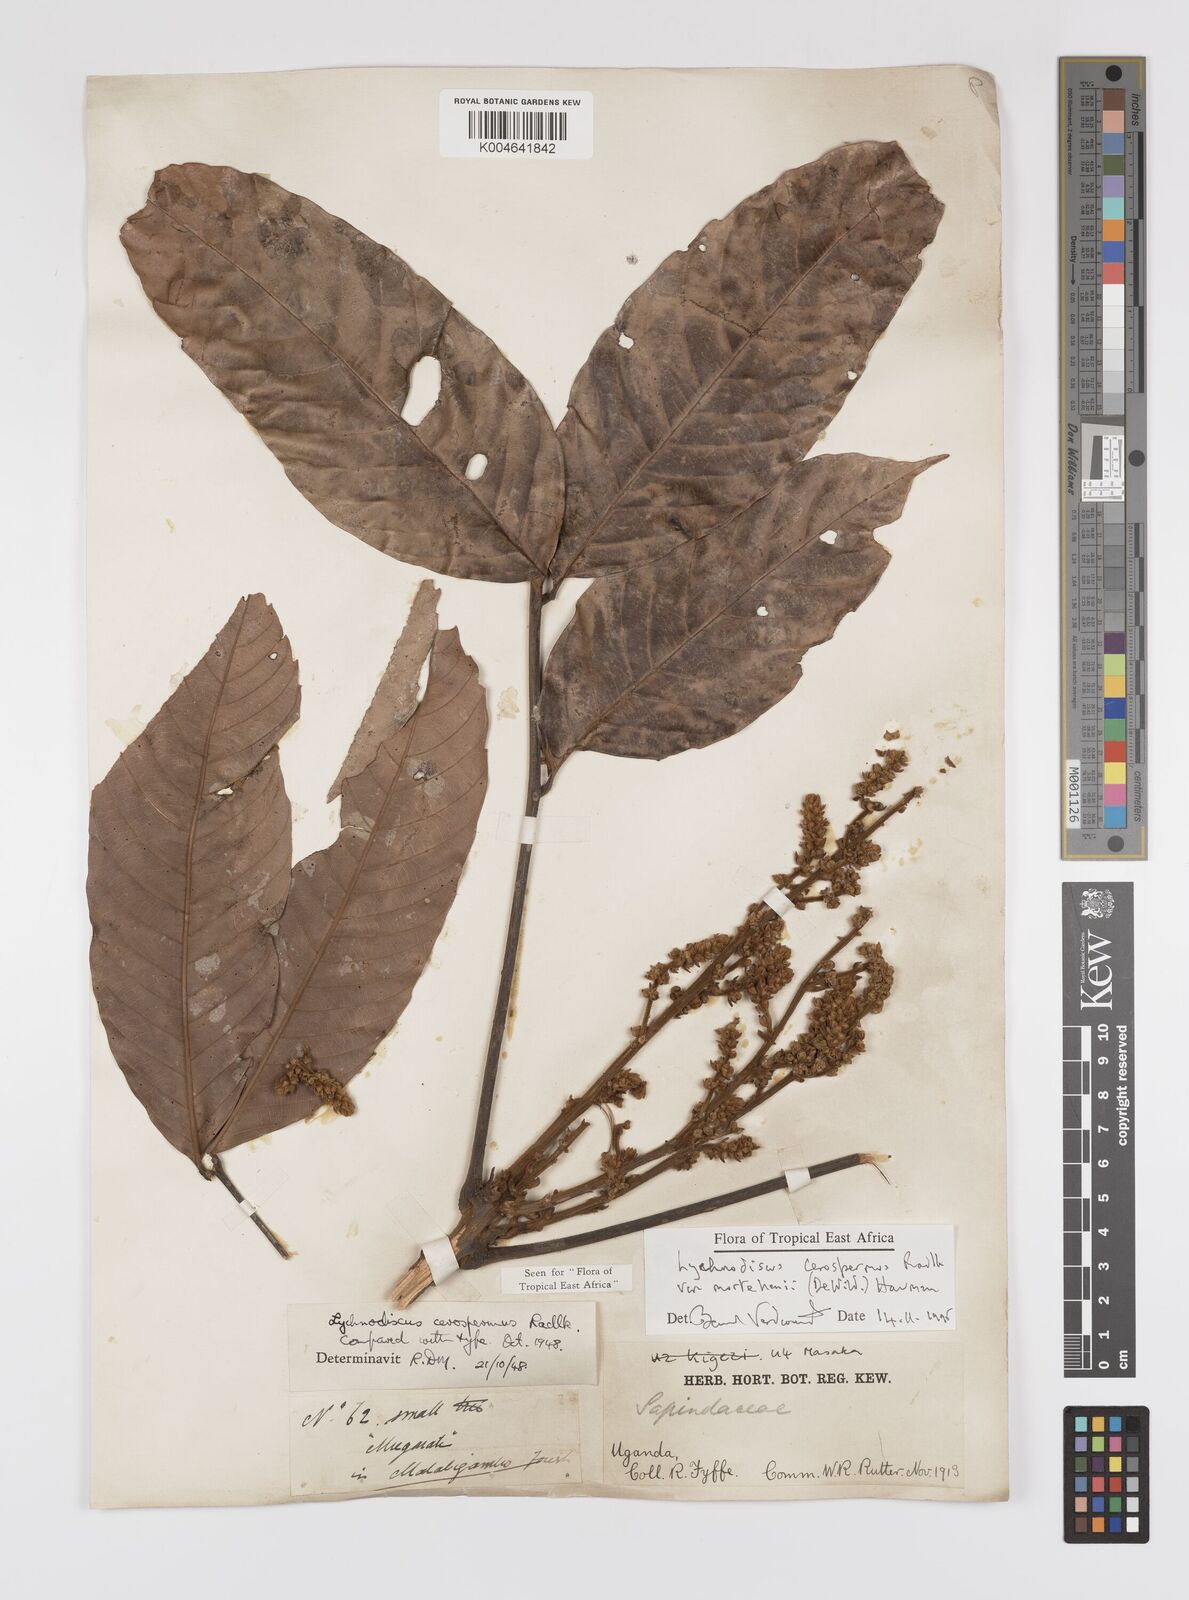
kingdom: Plantae
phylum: Tracheophyta
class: Magnoliopsida
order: Sapindales
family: Sapindaceae
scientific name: Sapindaceae
